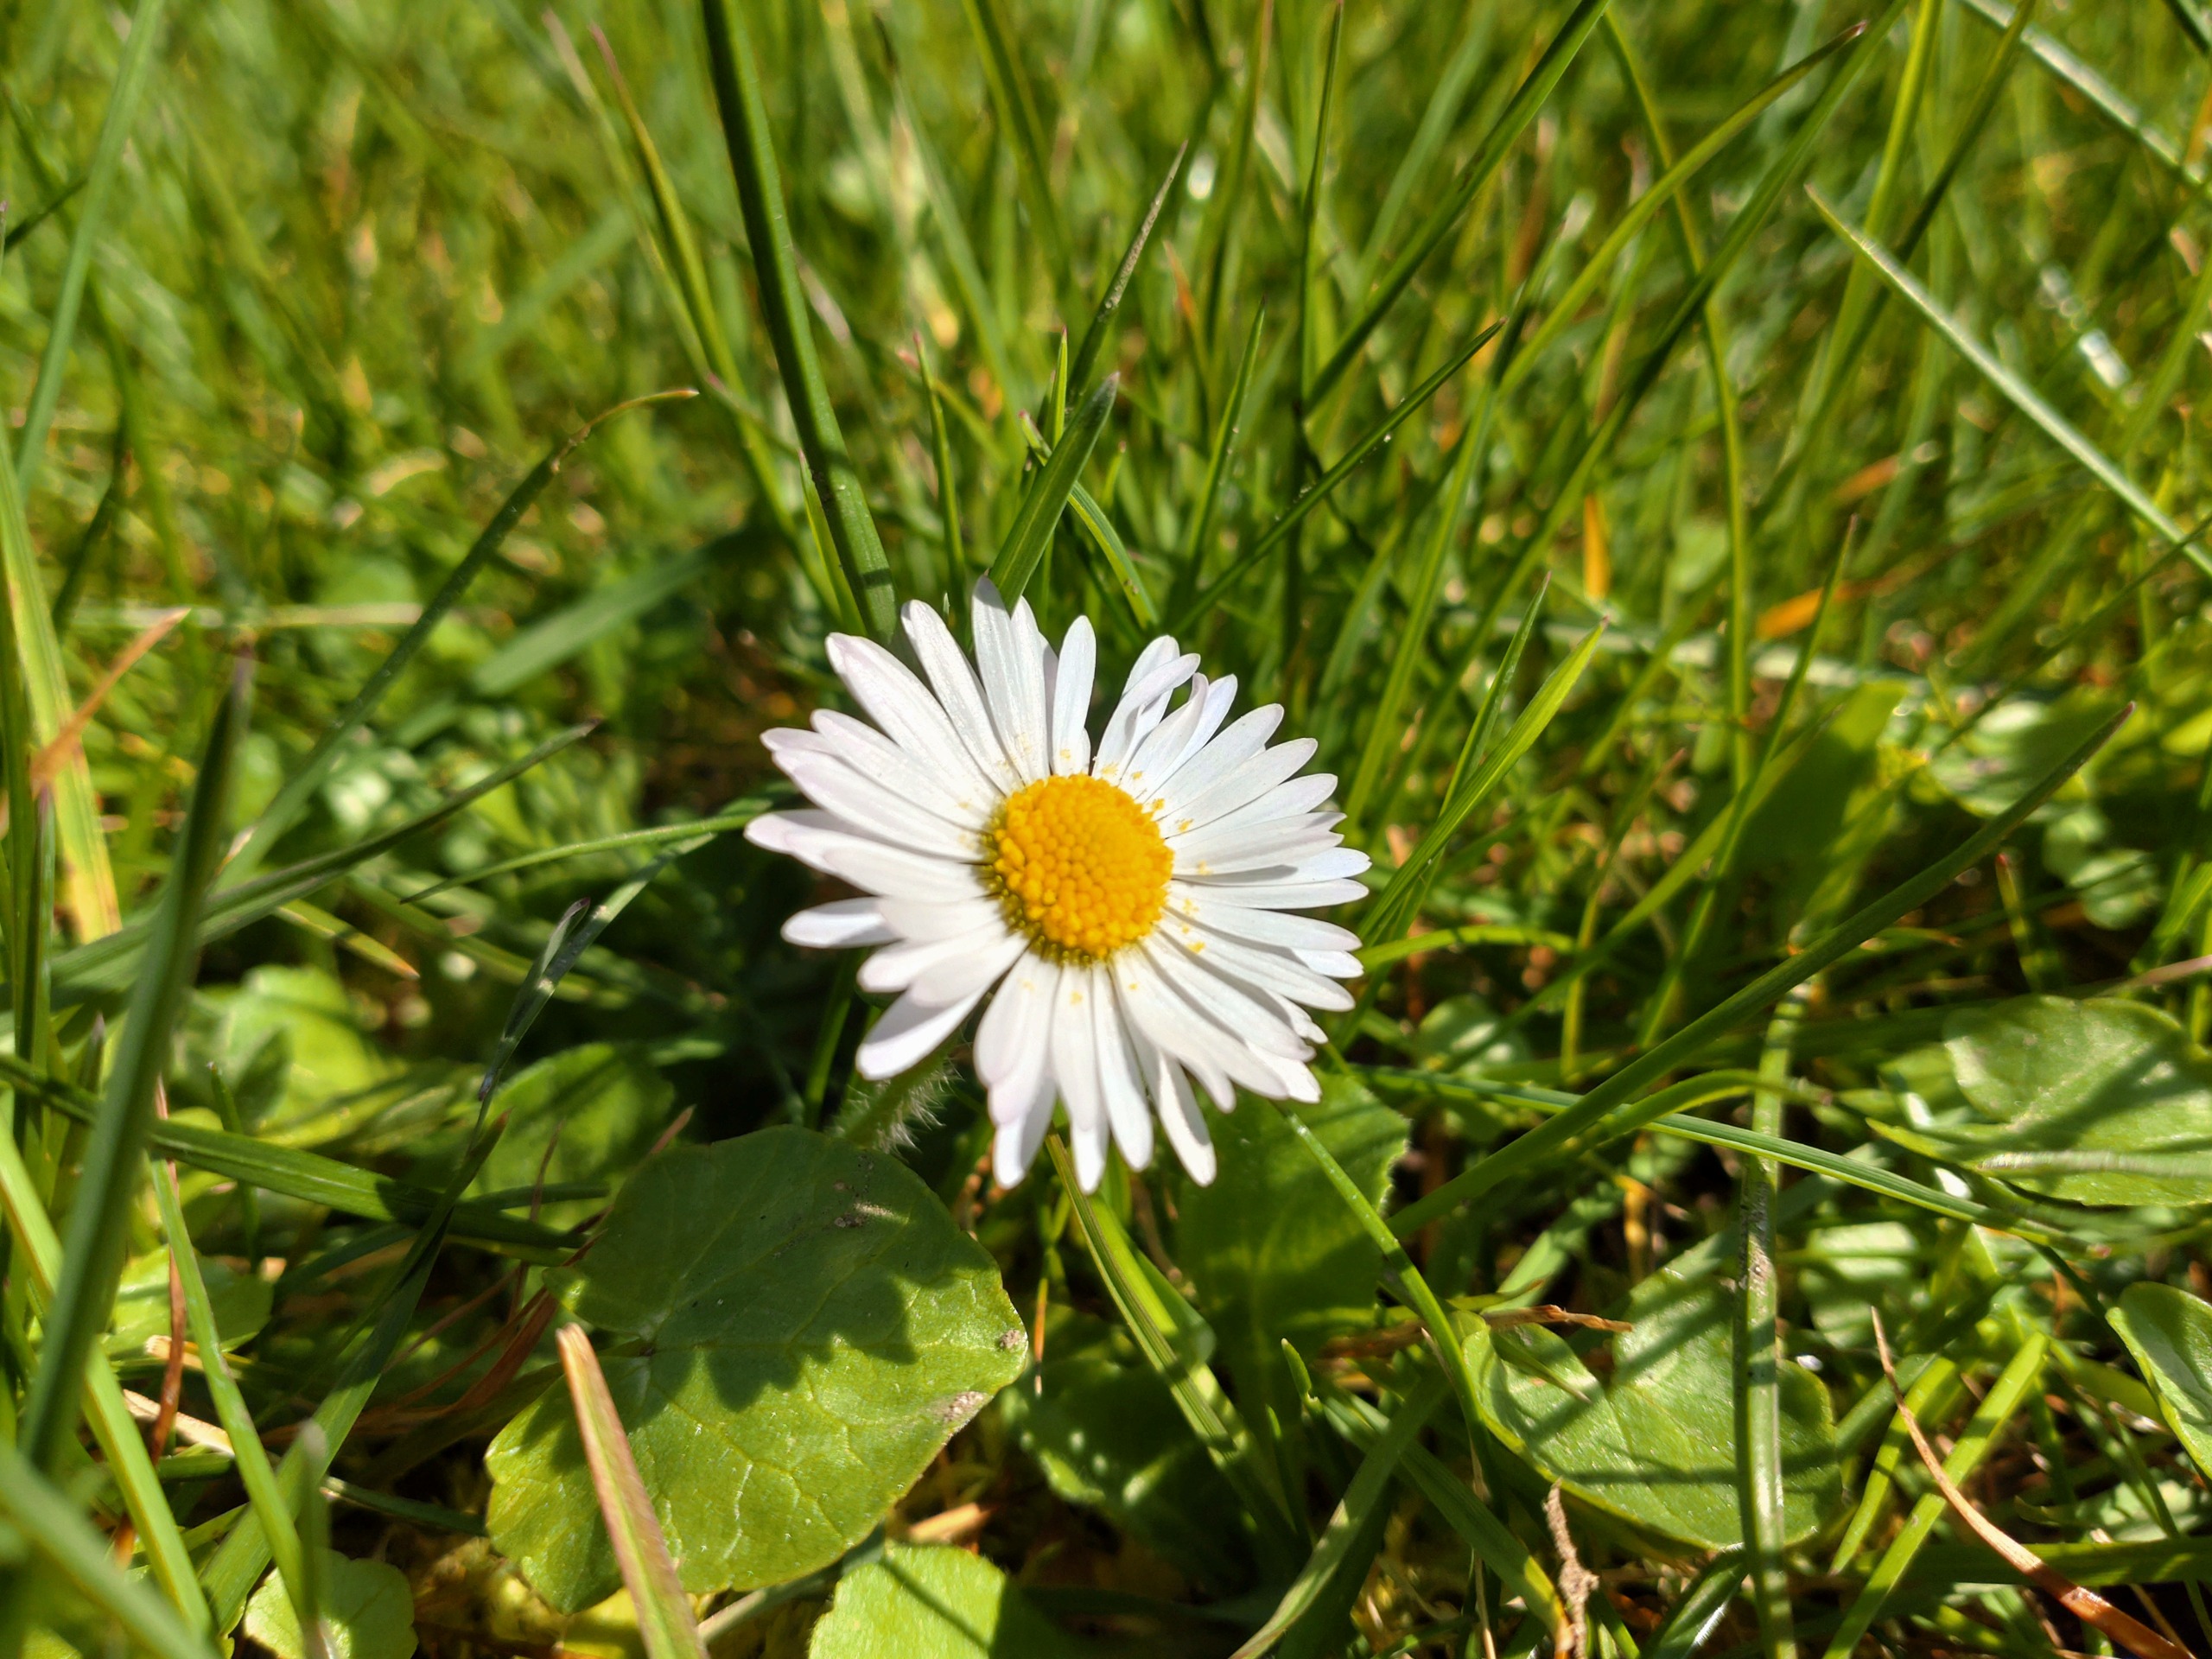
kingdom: Plantae
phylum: Tracheophyta
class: Magnoliopsida
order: Asterales
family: Asteraceae
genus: Bellis
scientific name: Bellis perennis
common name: Tusindfryd
